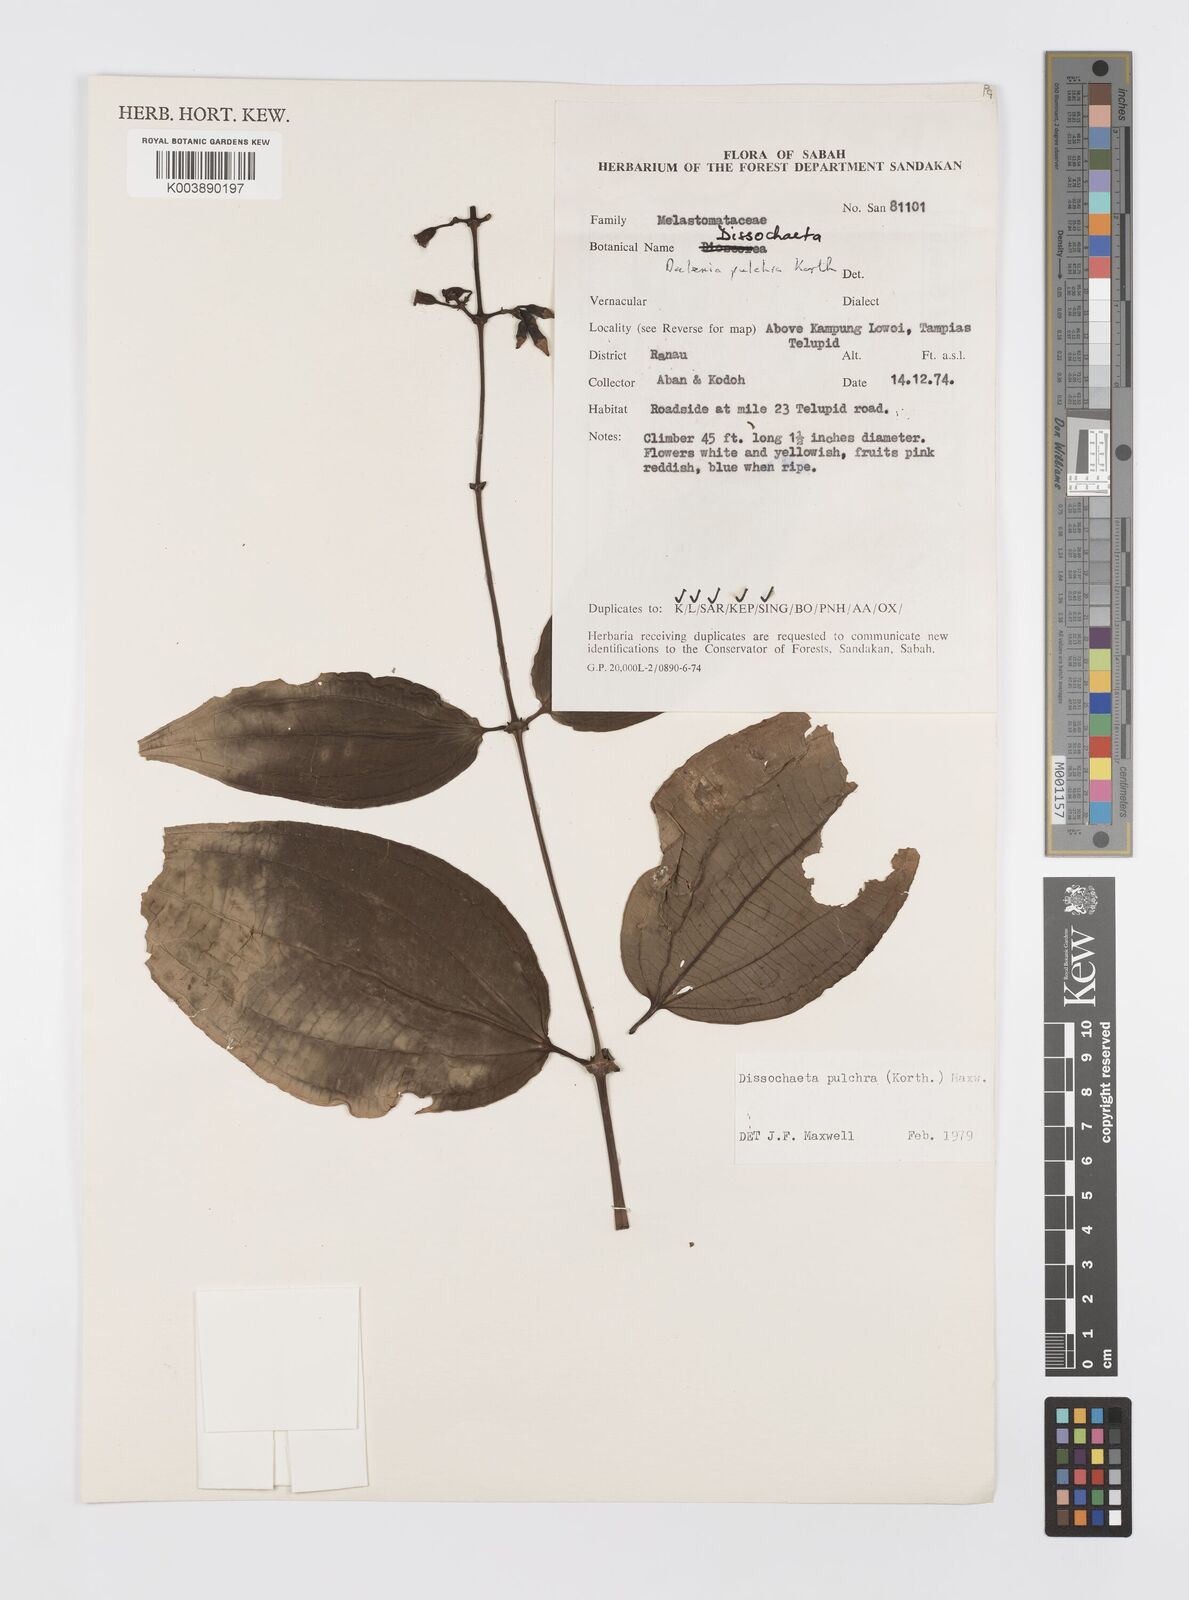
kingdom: Plantae
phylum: Tracheophyta
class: Magnoliopsida
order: Myrtales
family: Melastomataceae
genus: Dalenia
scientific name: Dalenia pulchra
